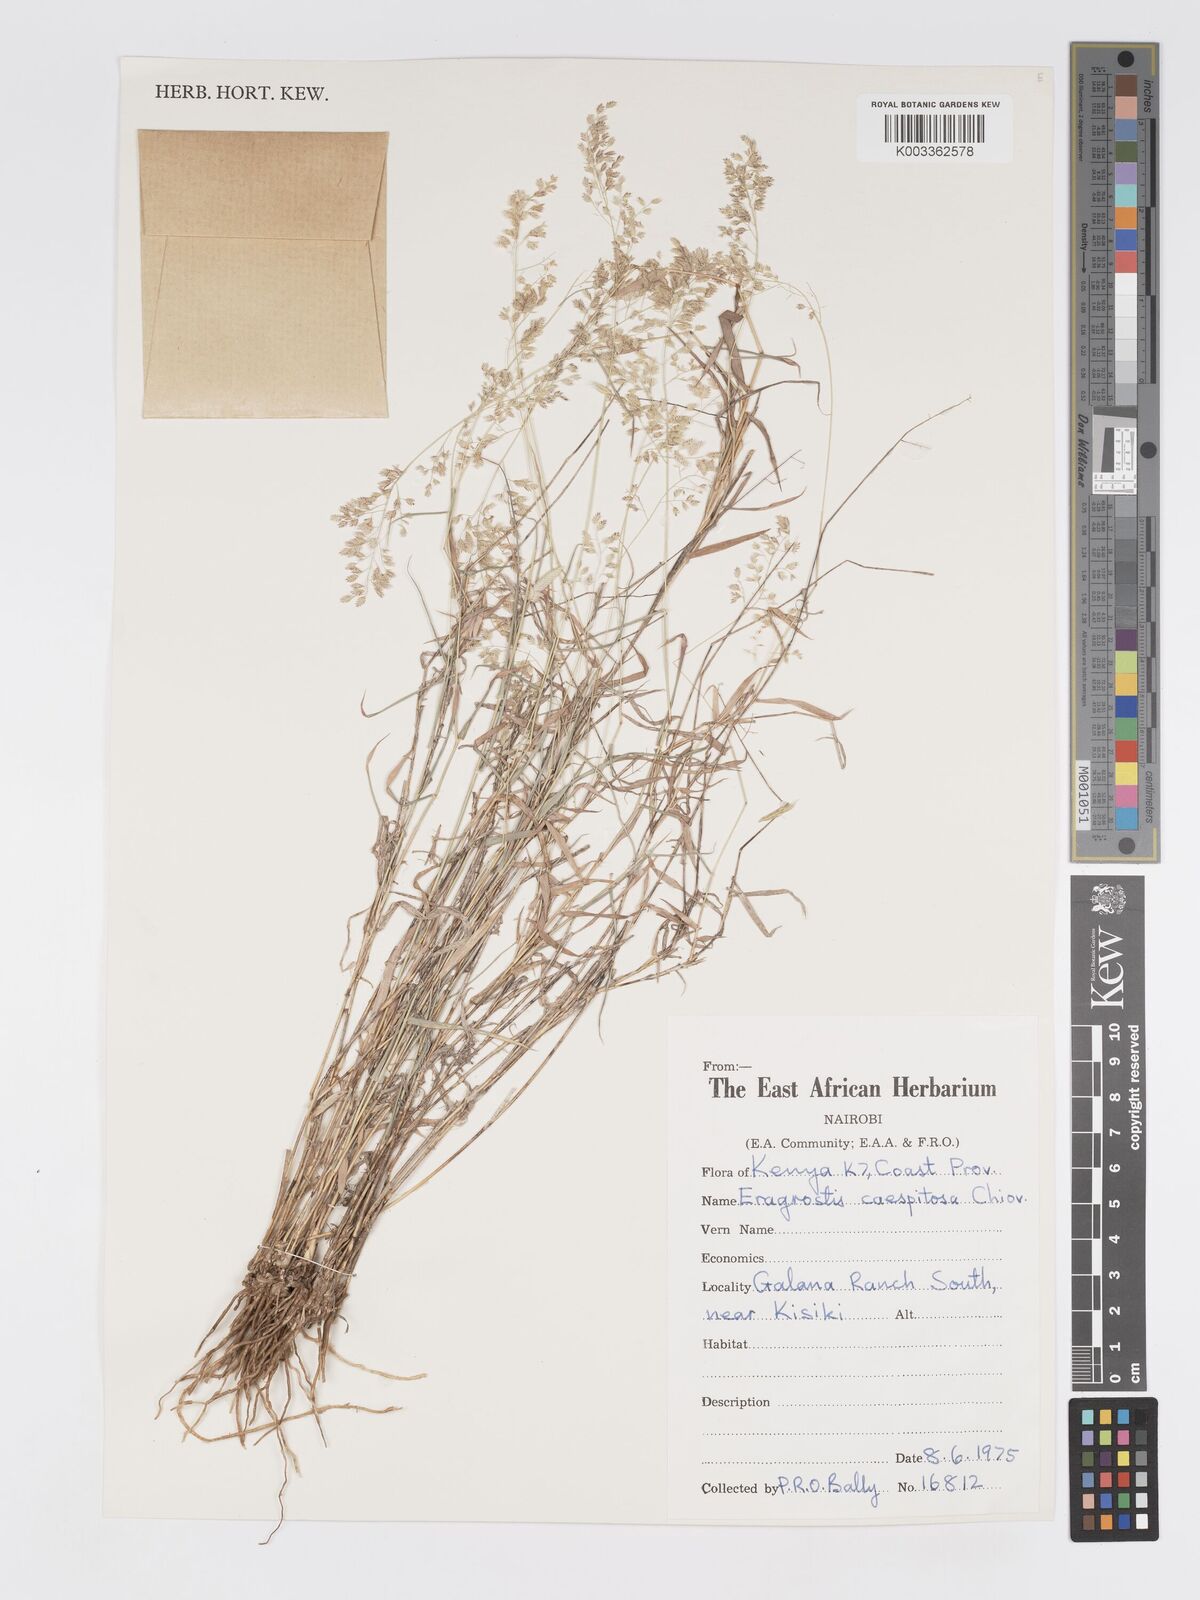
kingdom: Plantae
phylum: Tracheophyta
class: Liliopsida
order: Poales
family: Poaceae
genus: Eragrostis
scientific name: Eragrostis caespitosa
